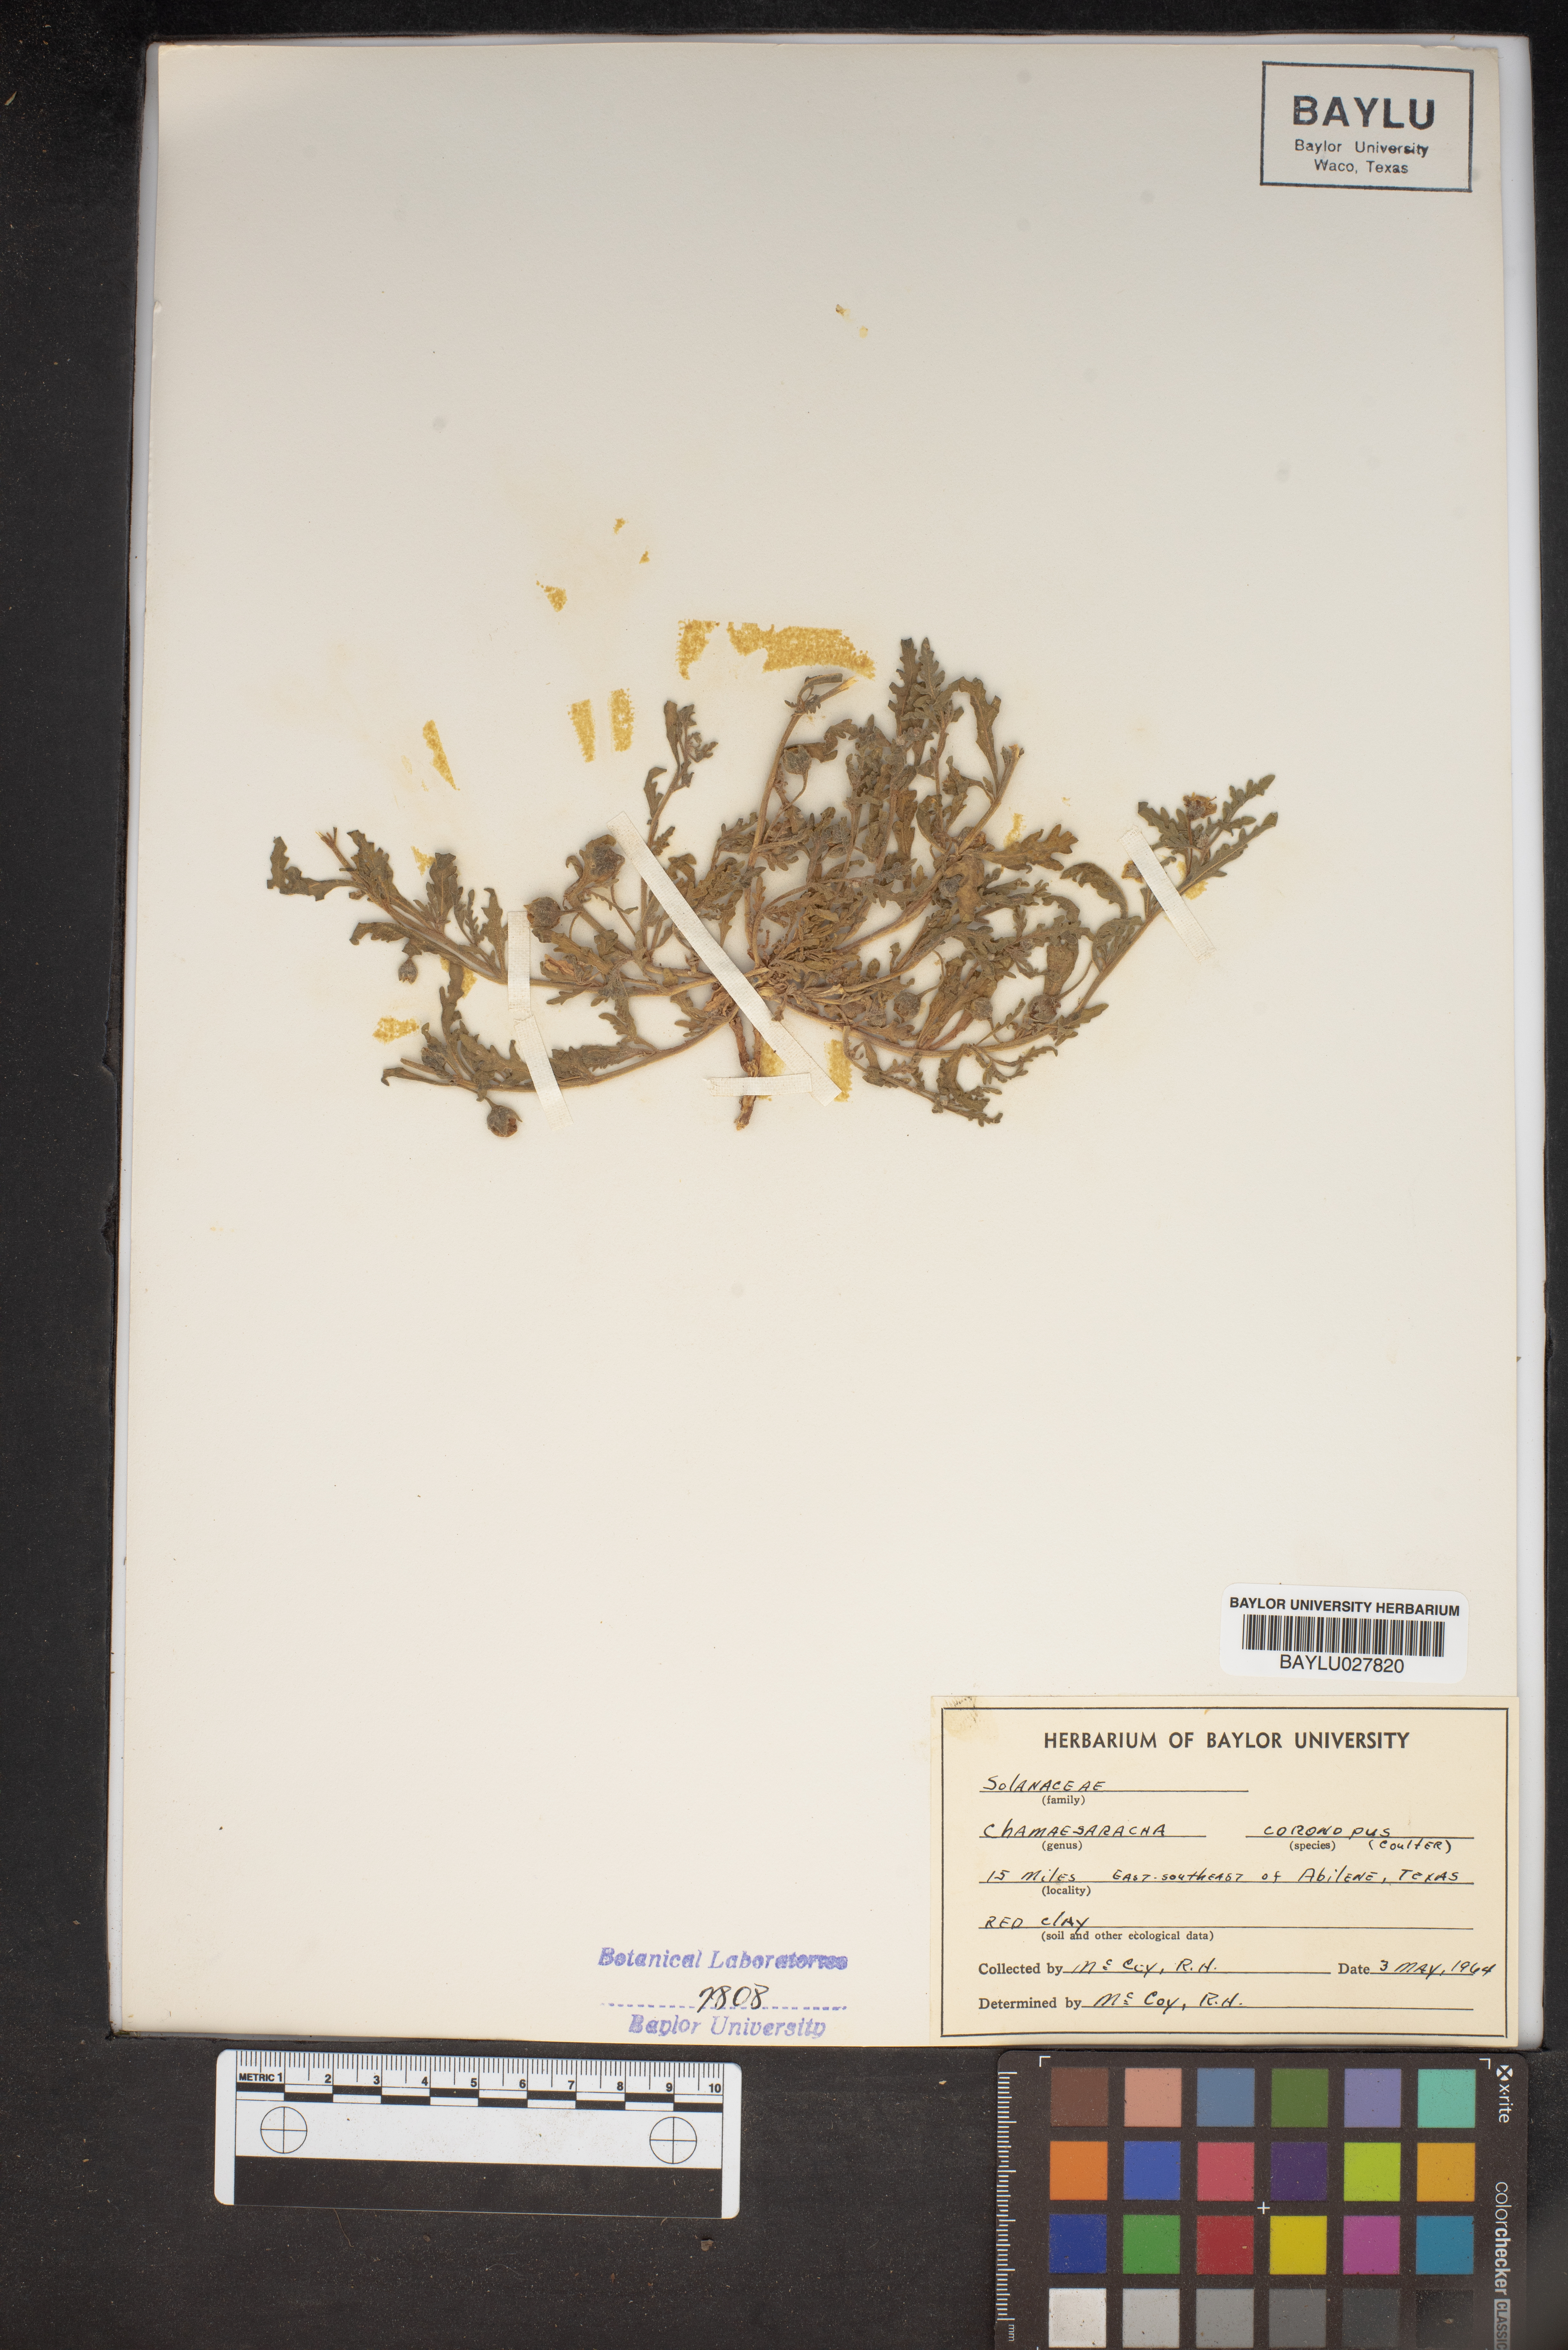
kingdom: Plantae
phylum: Tracheophyta
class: Magnoliopsida
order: Solanales
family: Solanaceae
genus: Chamaesaracha
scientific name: Chamaesaracha coronopus
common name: Smooth chamaesaracha
